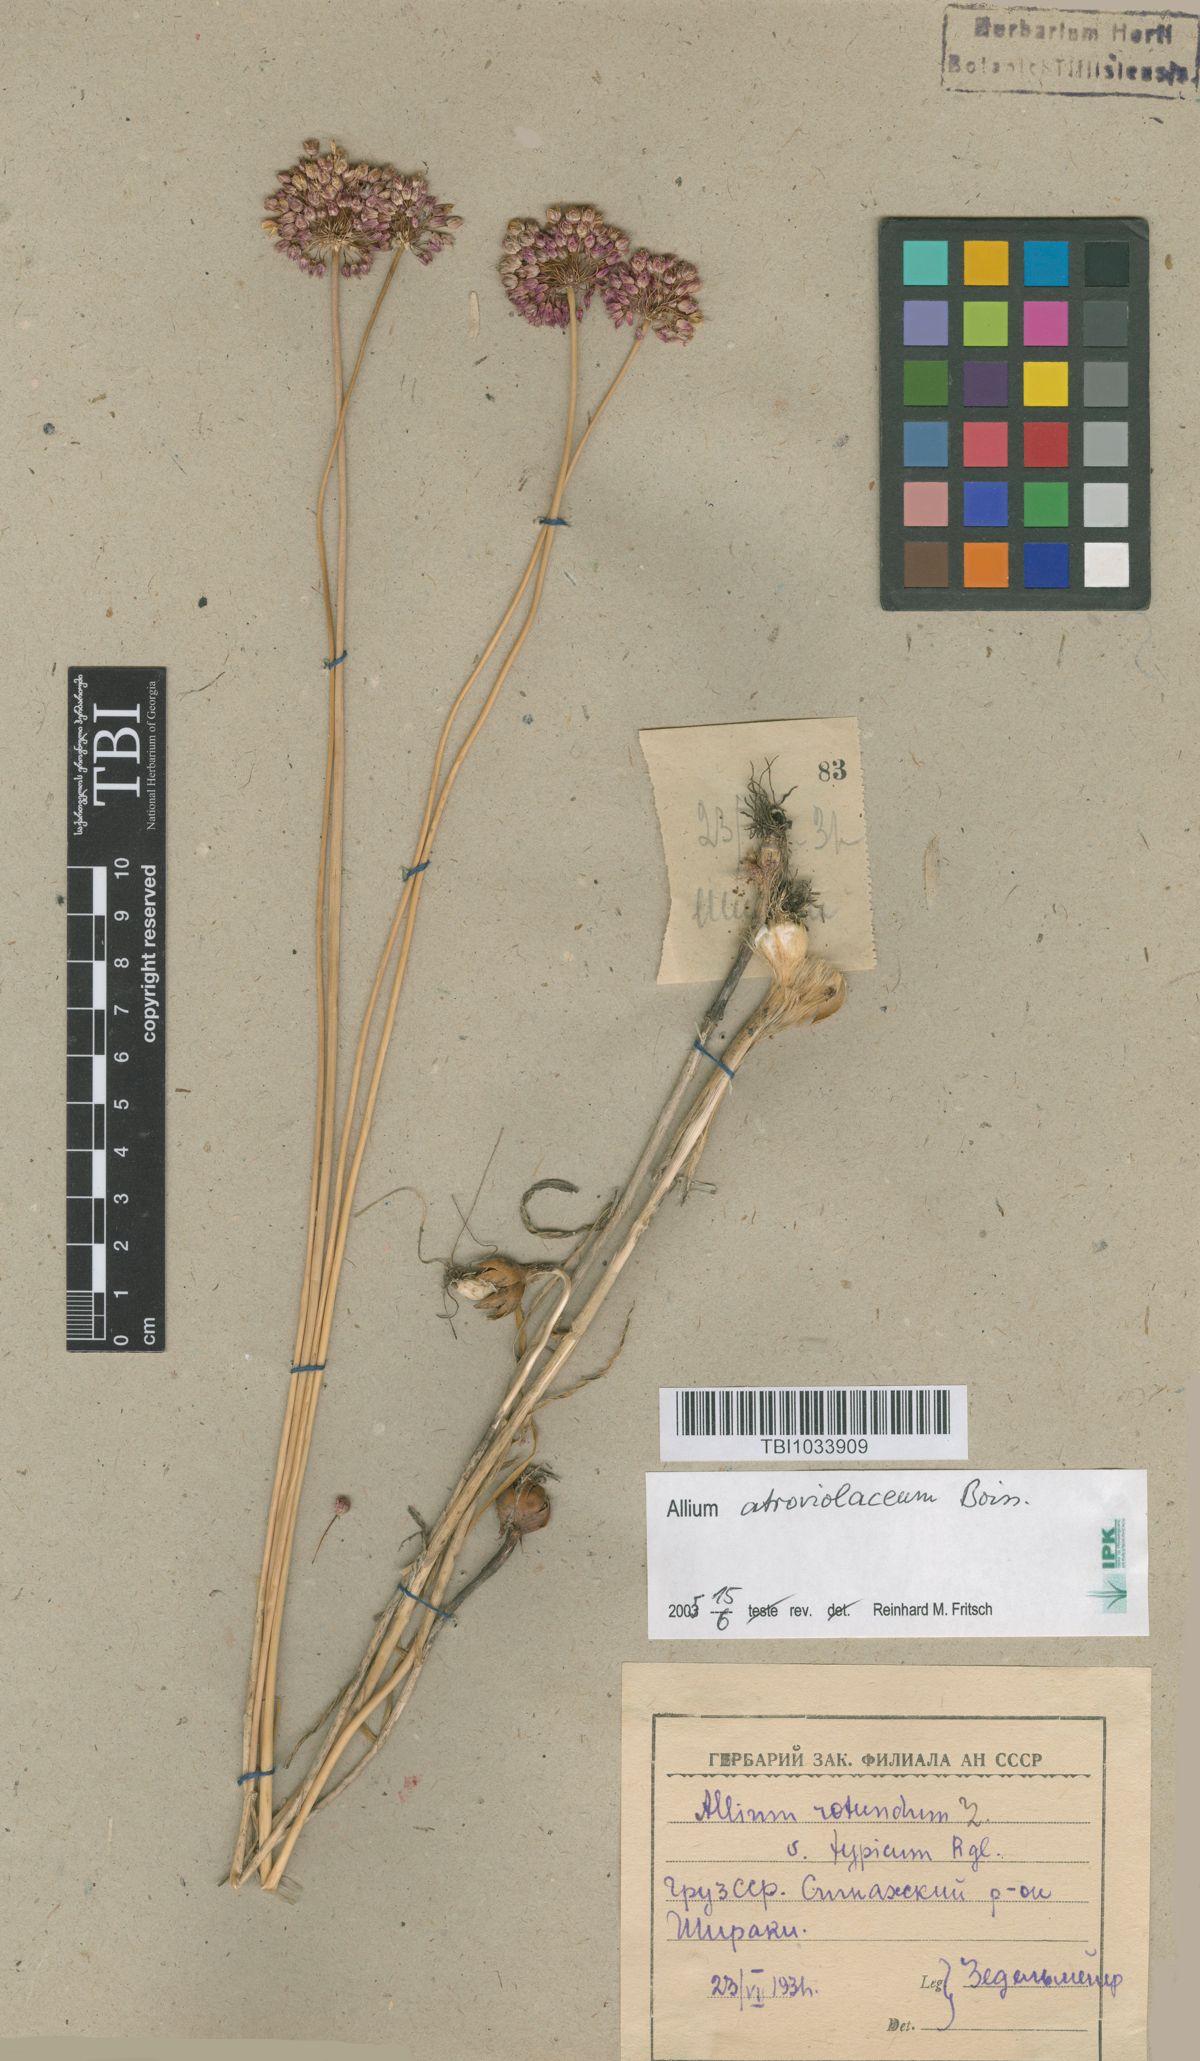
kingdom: Plantae
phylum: Tracheophyta
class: Liliopsida
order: Asparagales
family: Amaryllidaceae
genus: Allium
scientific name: Allium rotundum
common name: Sand leek
